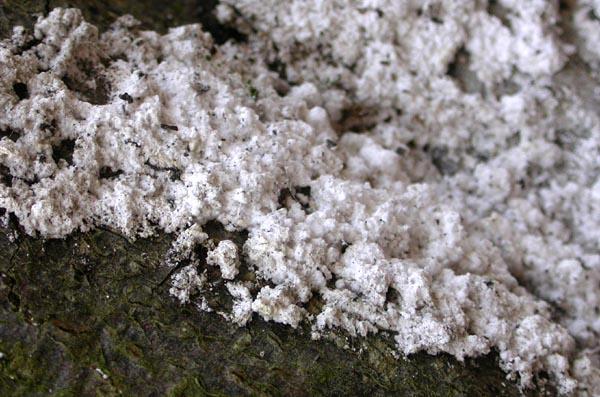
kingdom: Fungi
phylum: Basidiomycota
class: Agaricomycetes
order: Hymenochaetales
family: Rickenellaceae
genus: Sidera
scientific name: Sidera vulgaris
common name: fin flødeporesvamp
